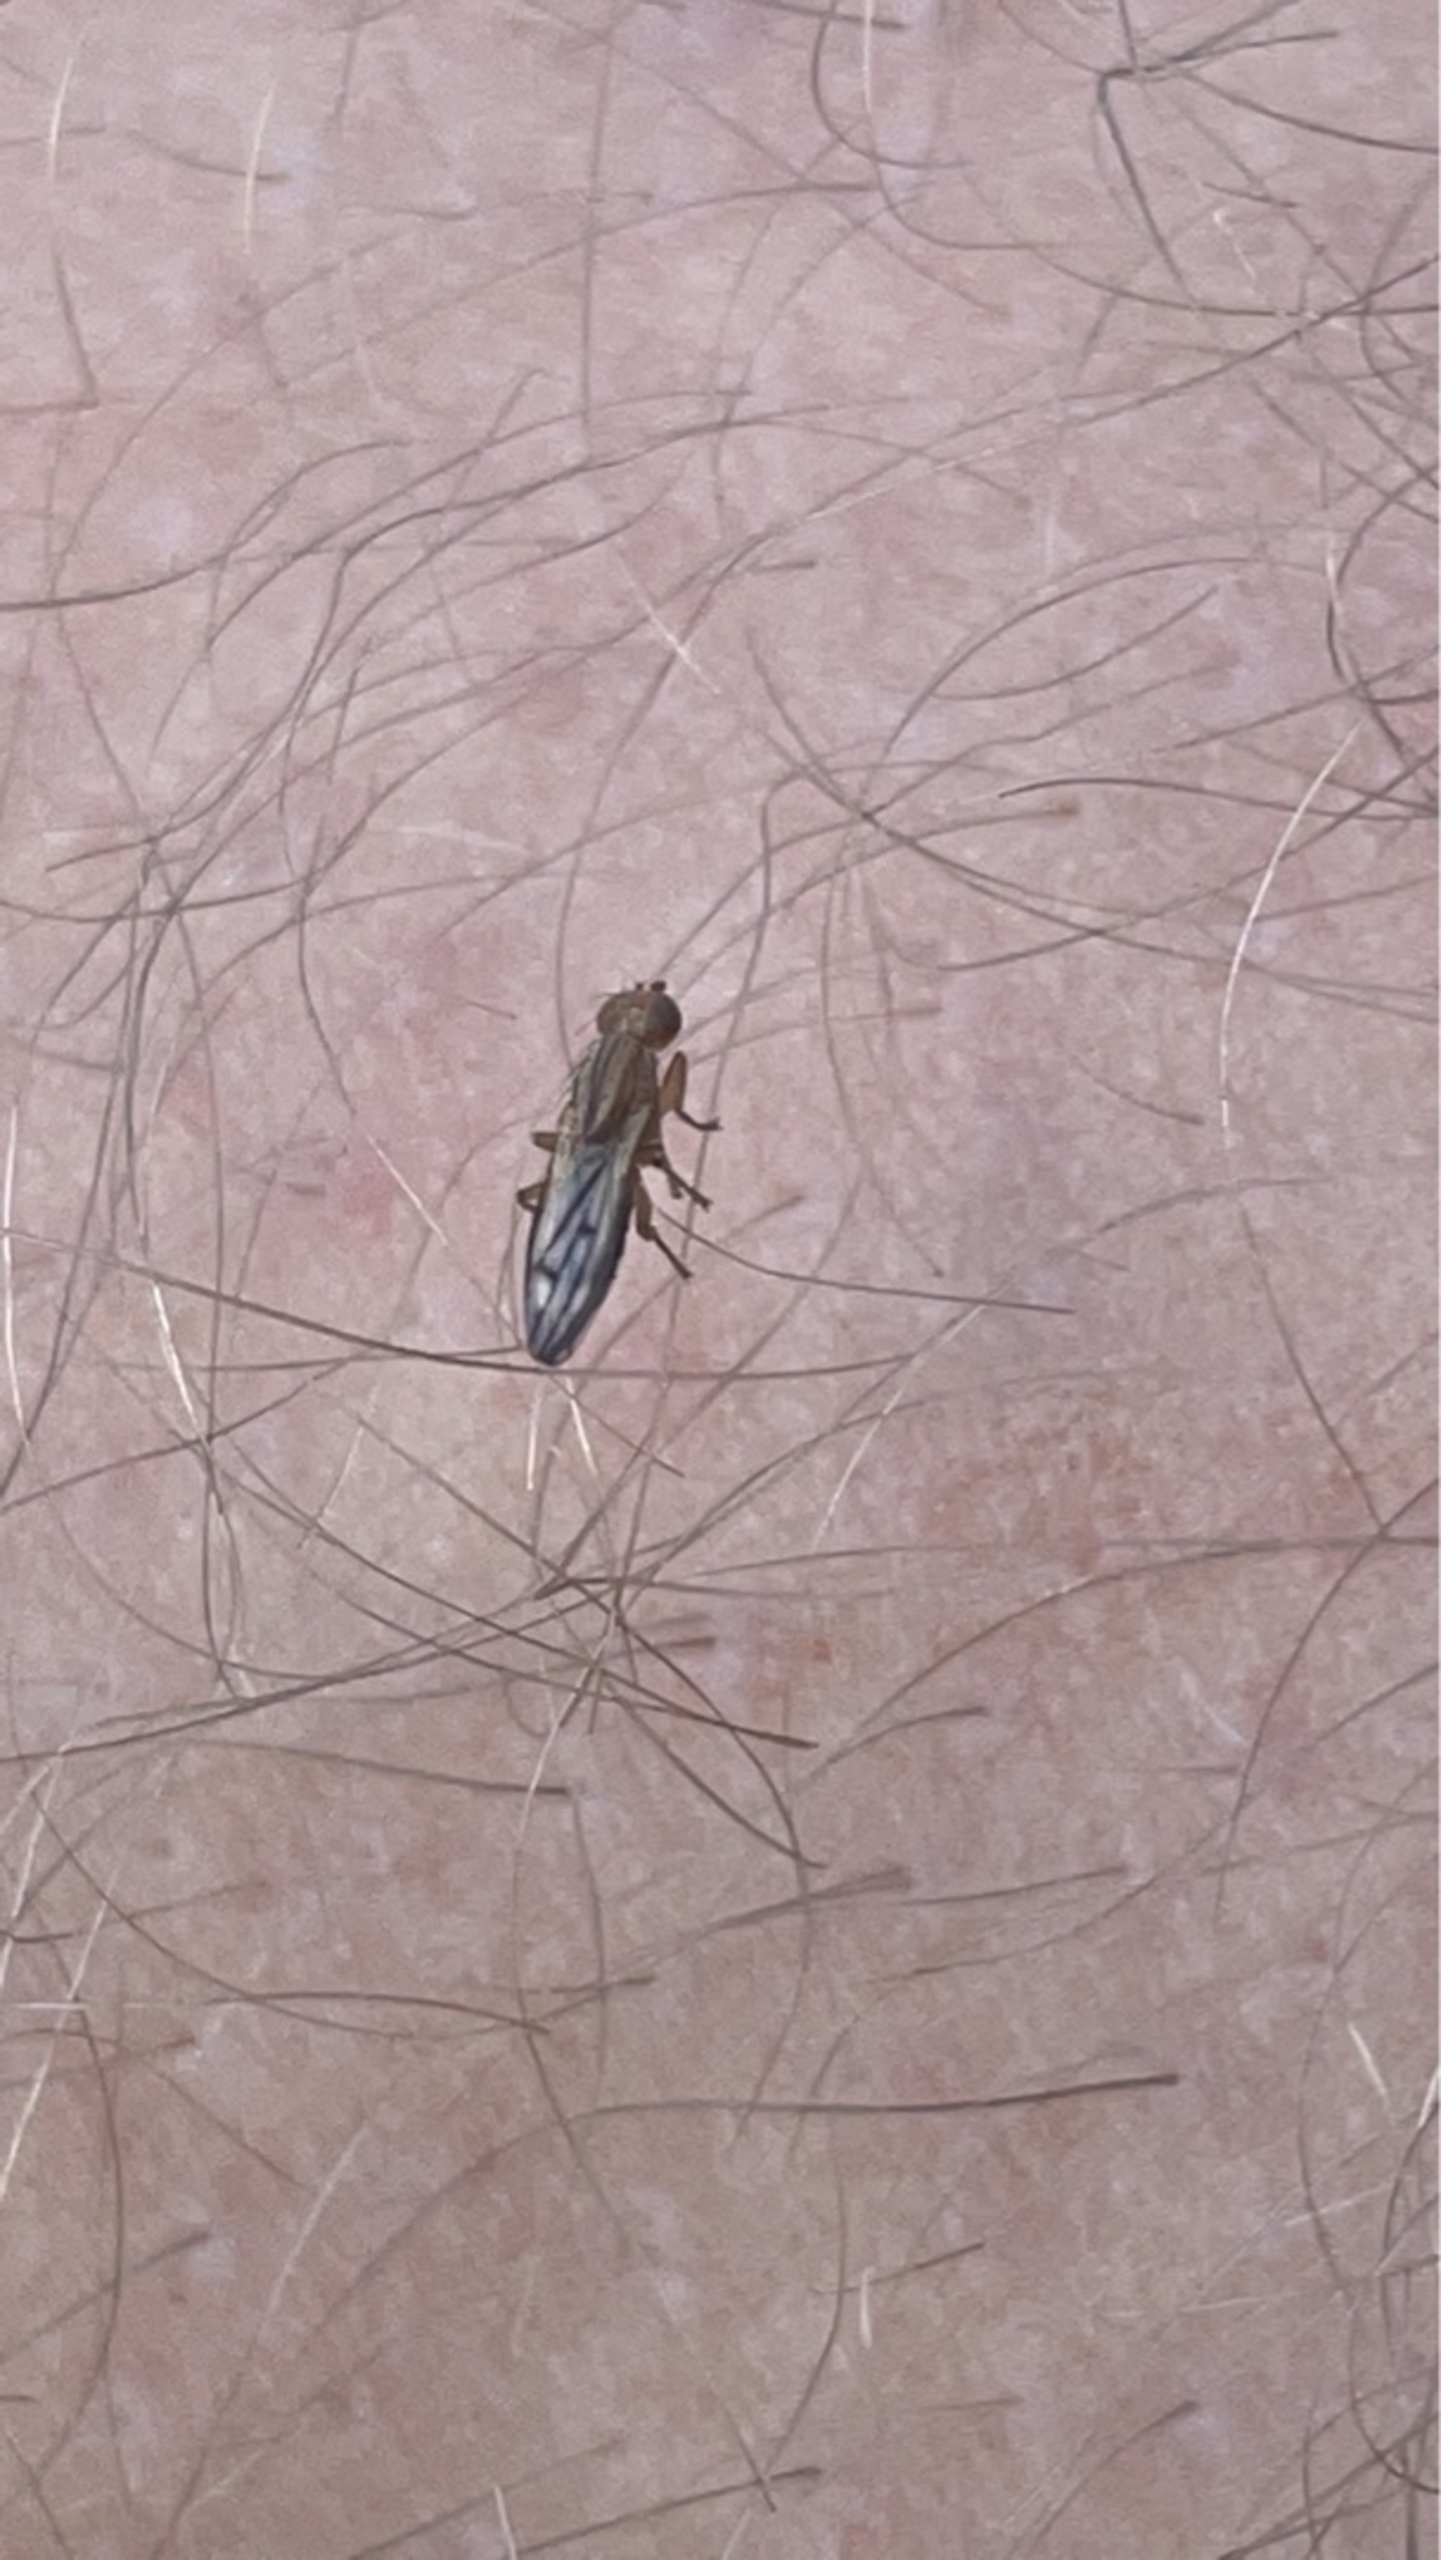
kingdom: Animalia
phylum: Arthropoda
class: Insecta
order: Diptera
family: Opomyzidae
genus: Opomyza
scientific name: Opomyza
